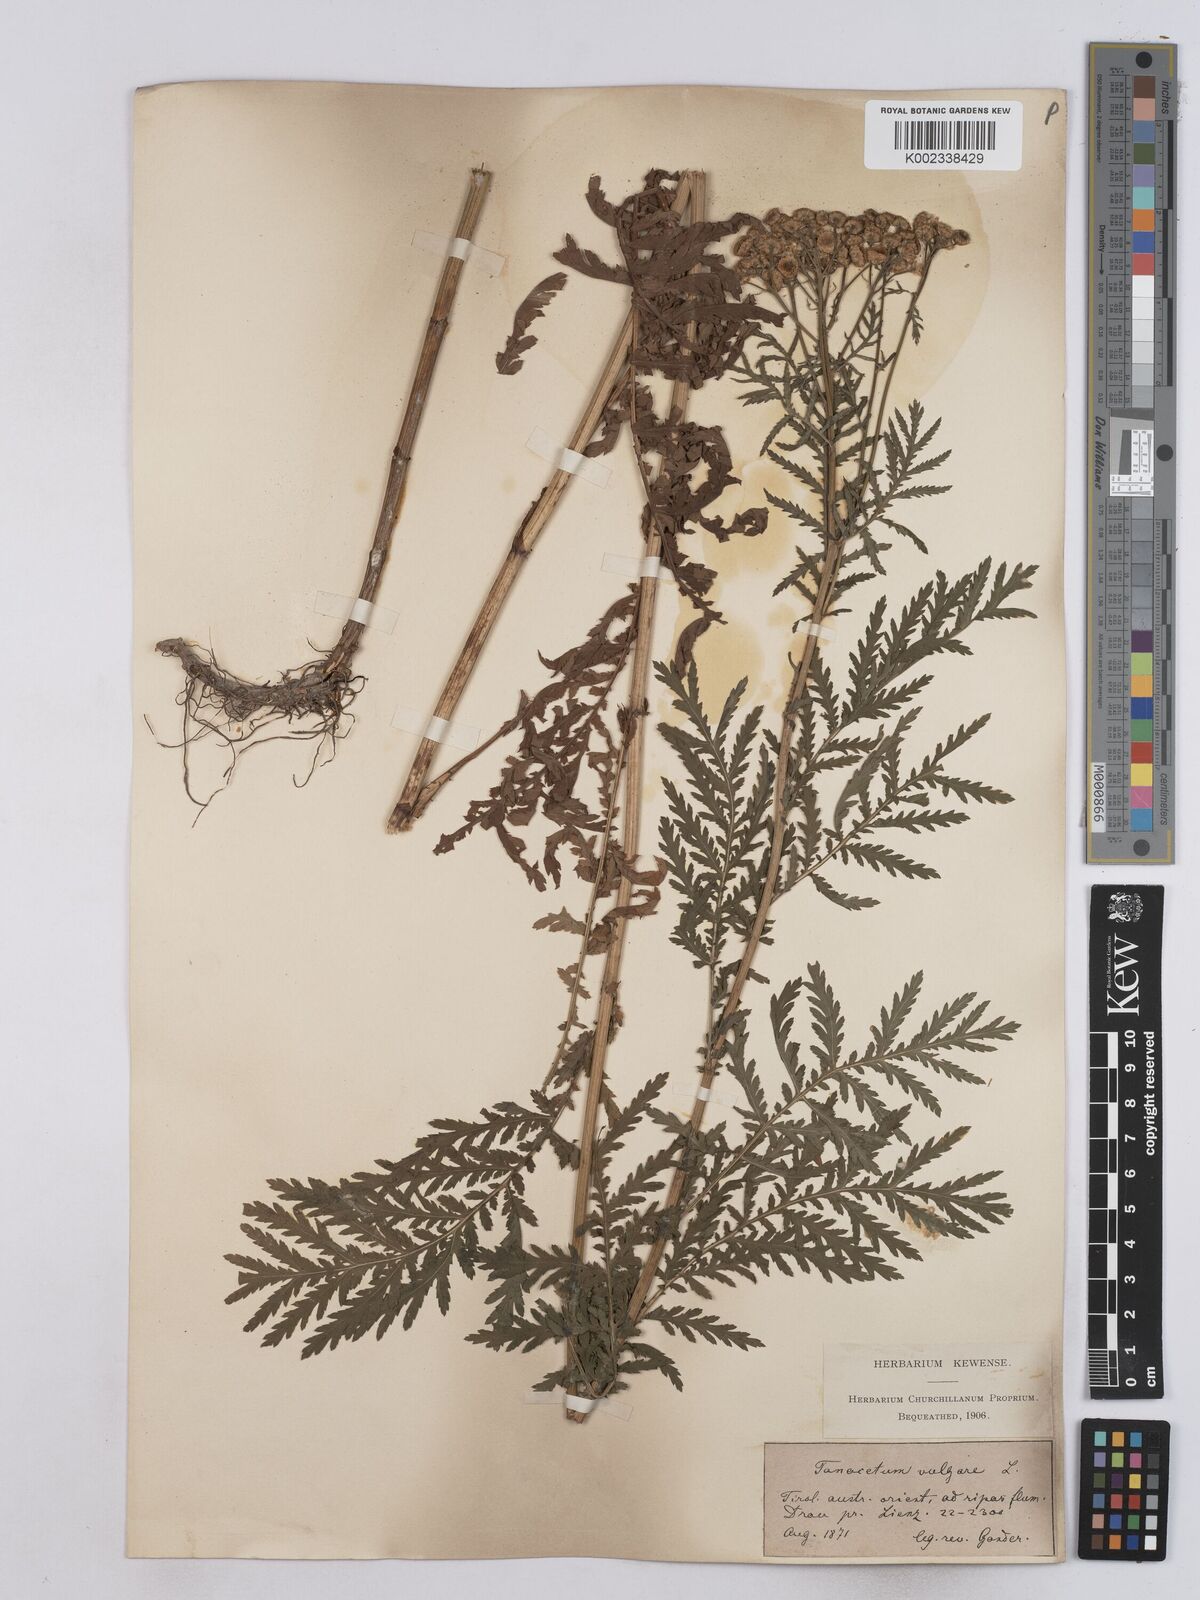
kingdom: Plantae
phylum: Tracheophyta
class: Magnoliopsida
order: Asterales
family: Asteraceae
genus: Tanacetum
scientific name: Tanacetum vulgare
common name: Common tansy
